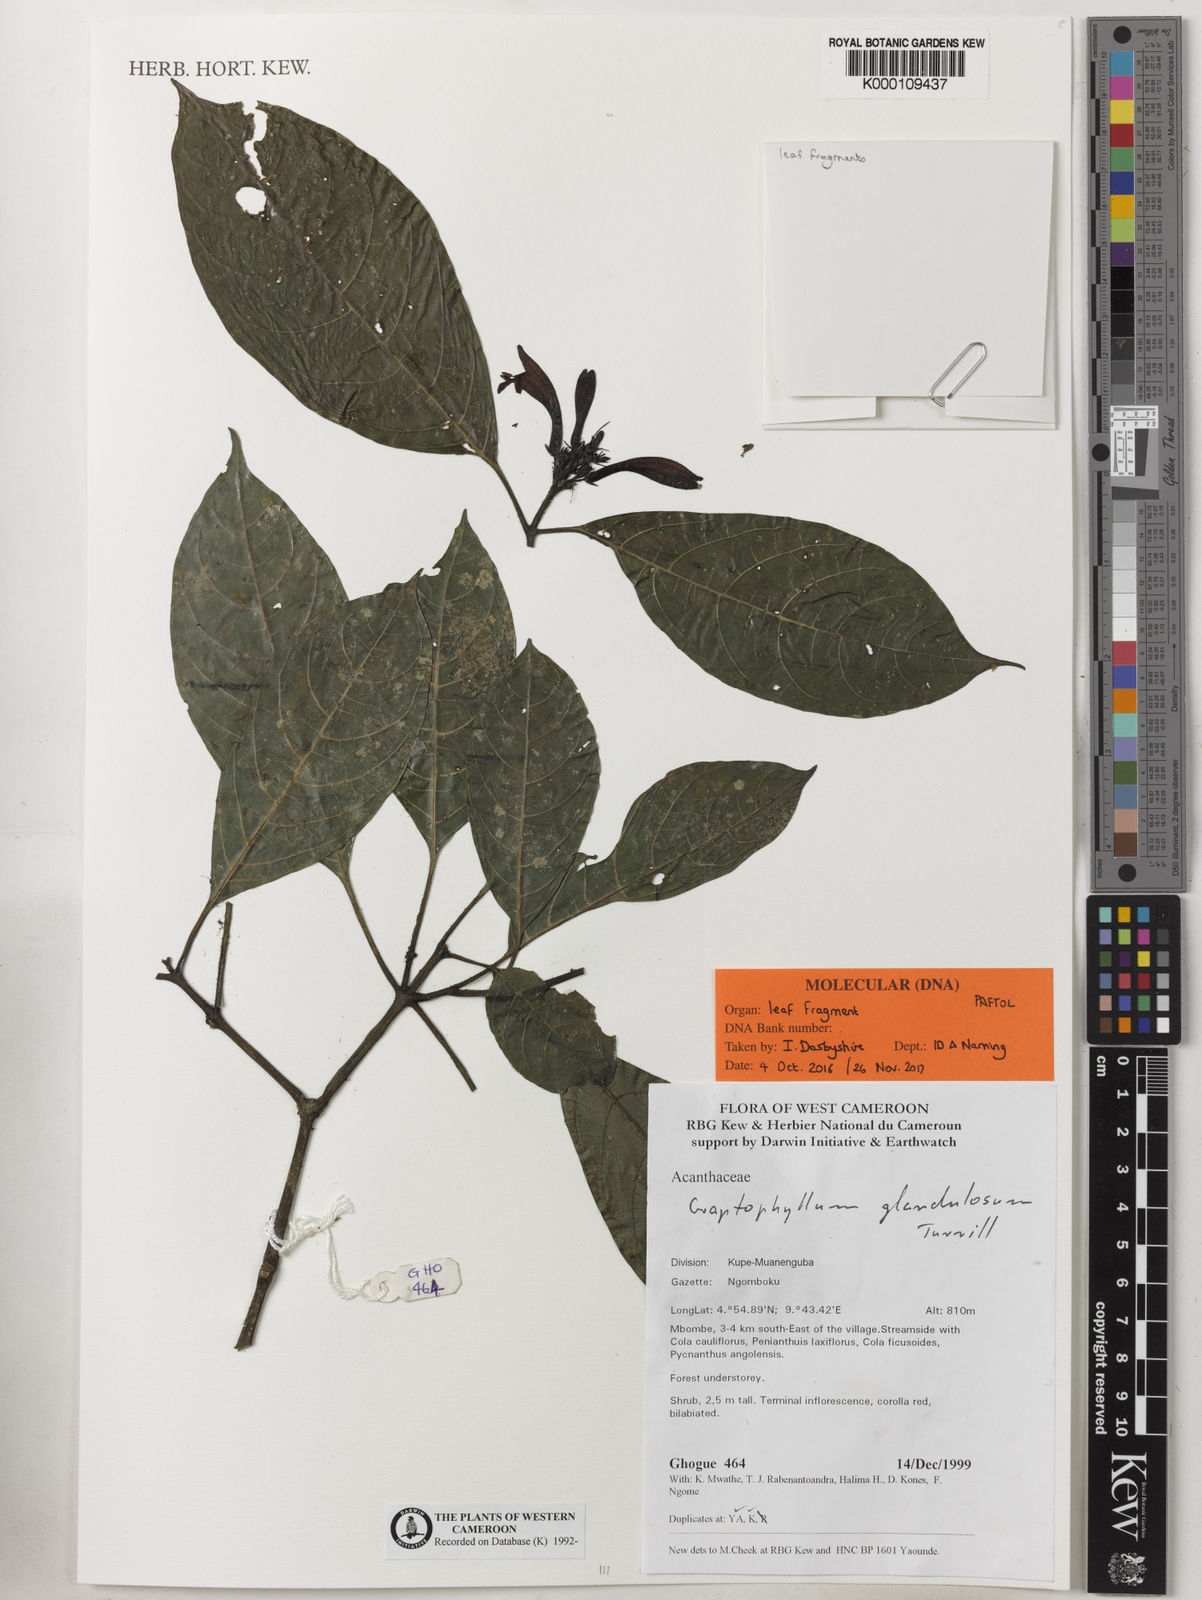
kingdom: Plantae
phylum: Tracheophyta
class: Magnoliopsida
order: Lamiales
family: Acanthaceae
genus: Graptophyllum
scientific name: Graptophyllum glandulosum
